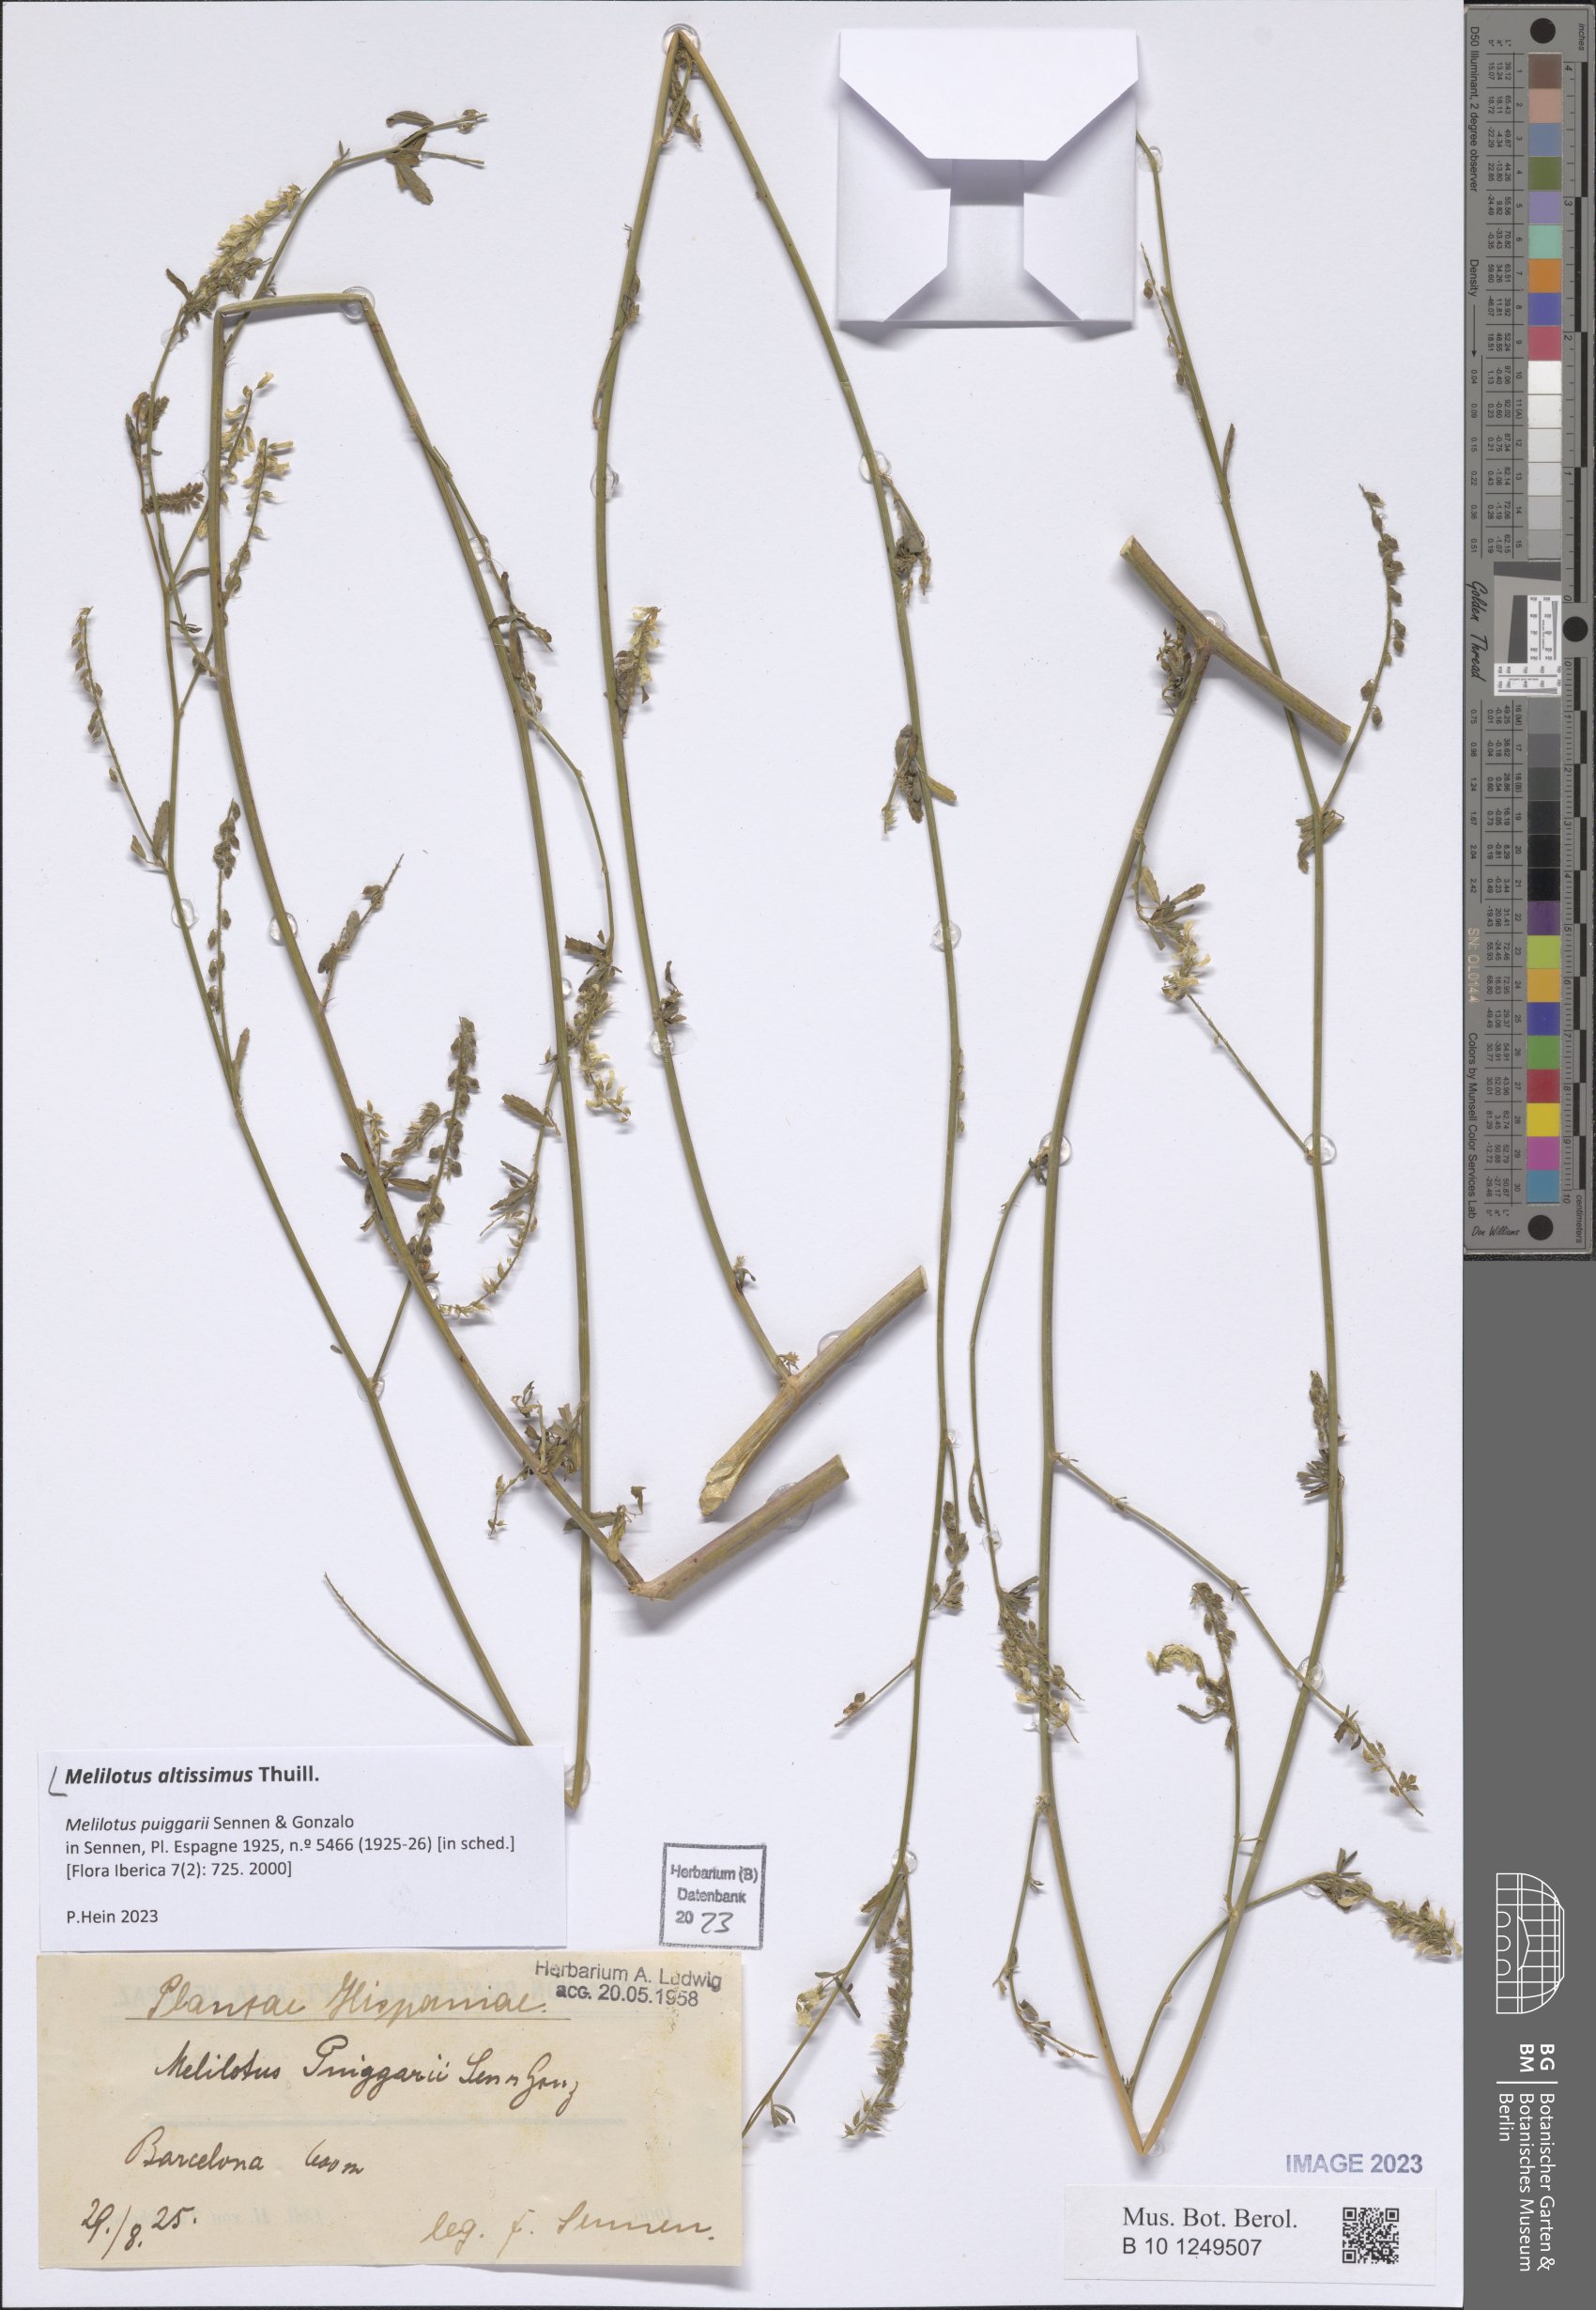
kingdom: Plantae
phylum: Tracheophyta
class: Magnoliopsida
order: Fabales
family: Fabaceae
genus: Melilotus
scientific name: Melilotus altissimus
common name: Tall melilot
